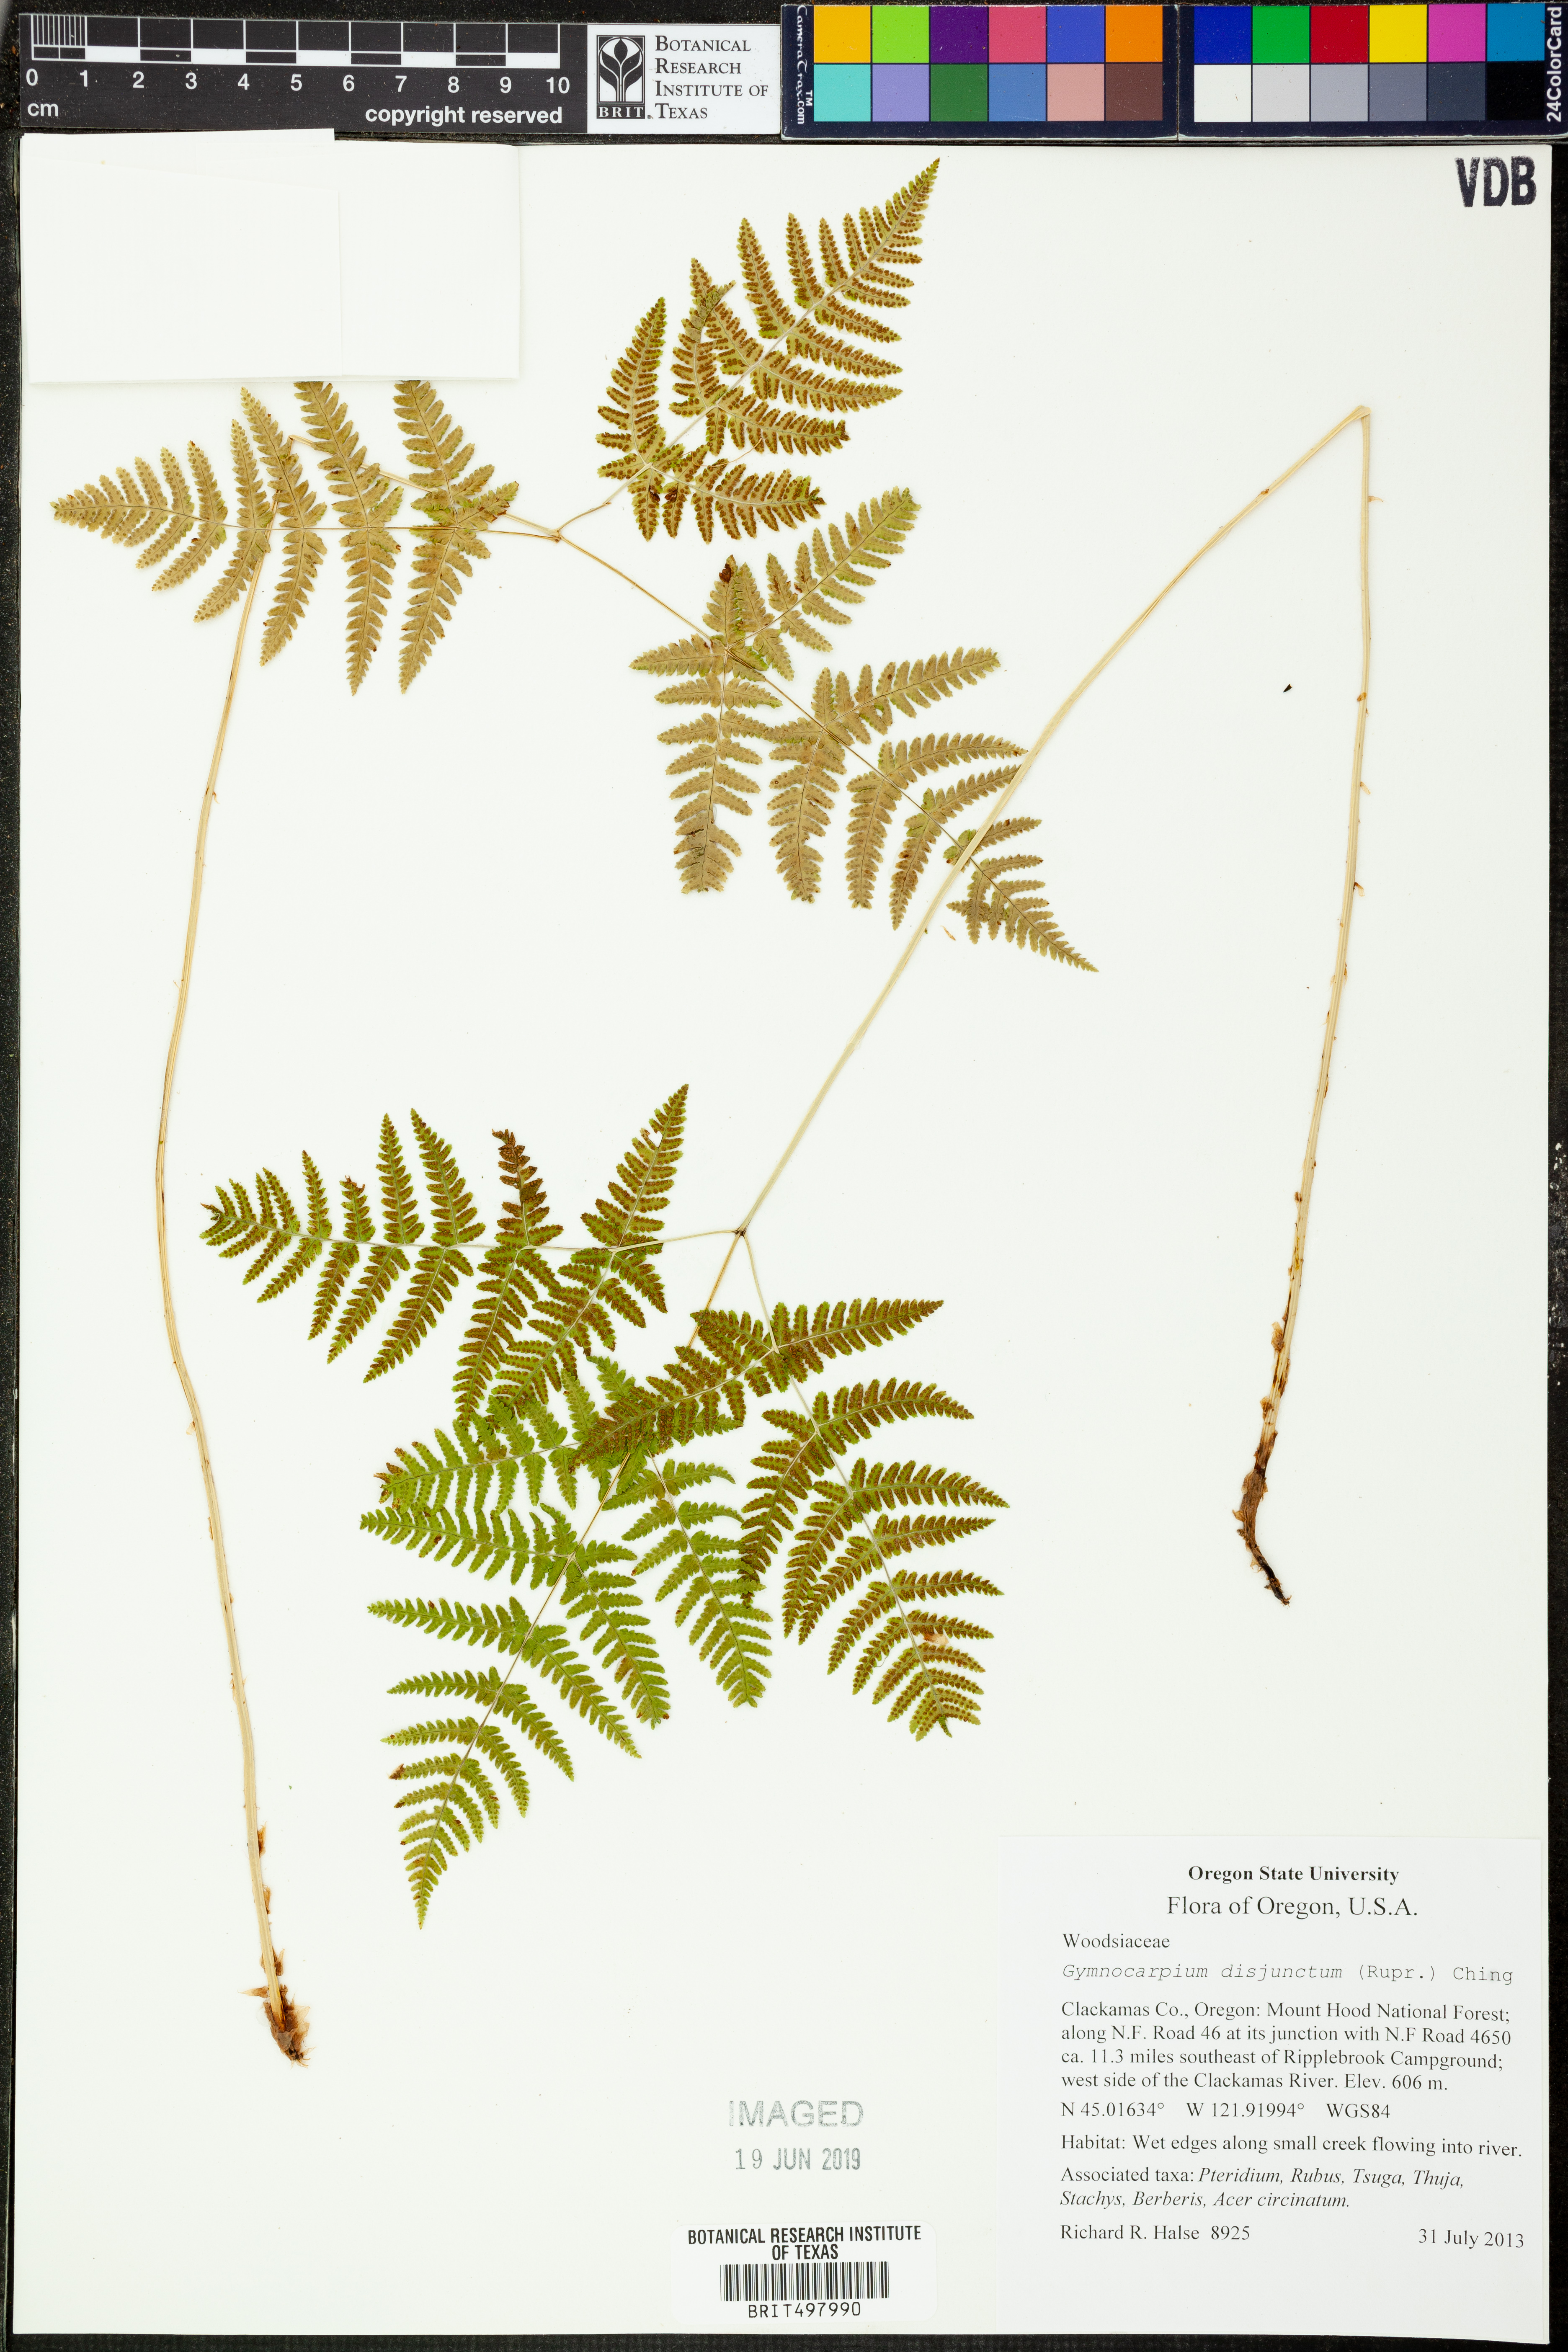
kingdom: Plantae
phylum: Tracheophyta
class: Polypodiopsida
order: Polypodiales
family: Cystopteridaceae
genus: Gymnocarpium
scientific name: Gymnocarpium dryopteris
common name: Oak fern
